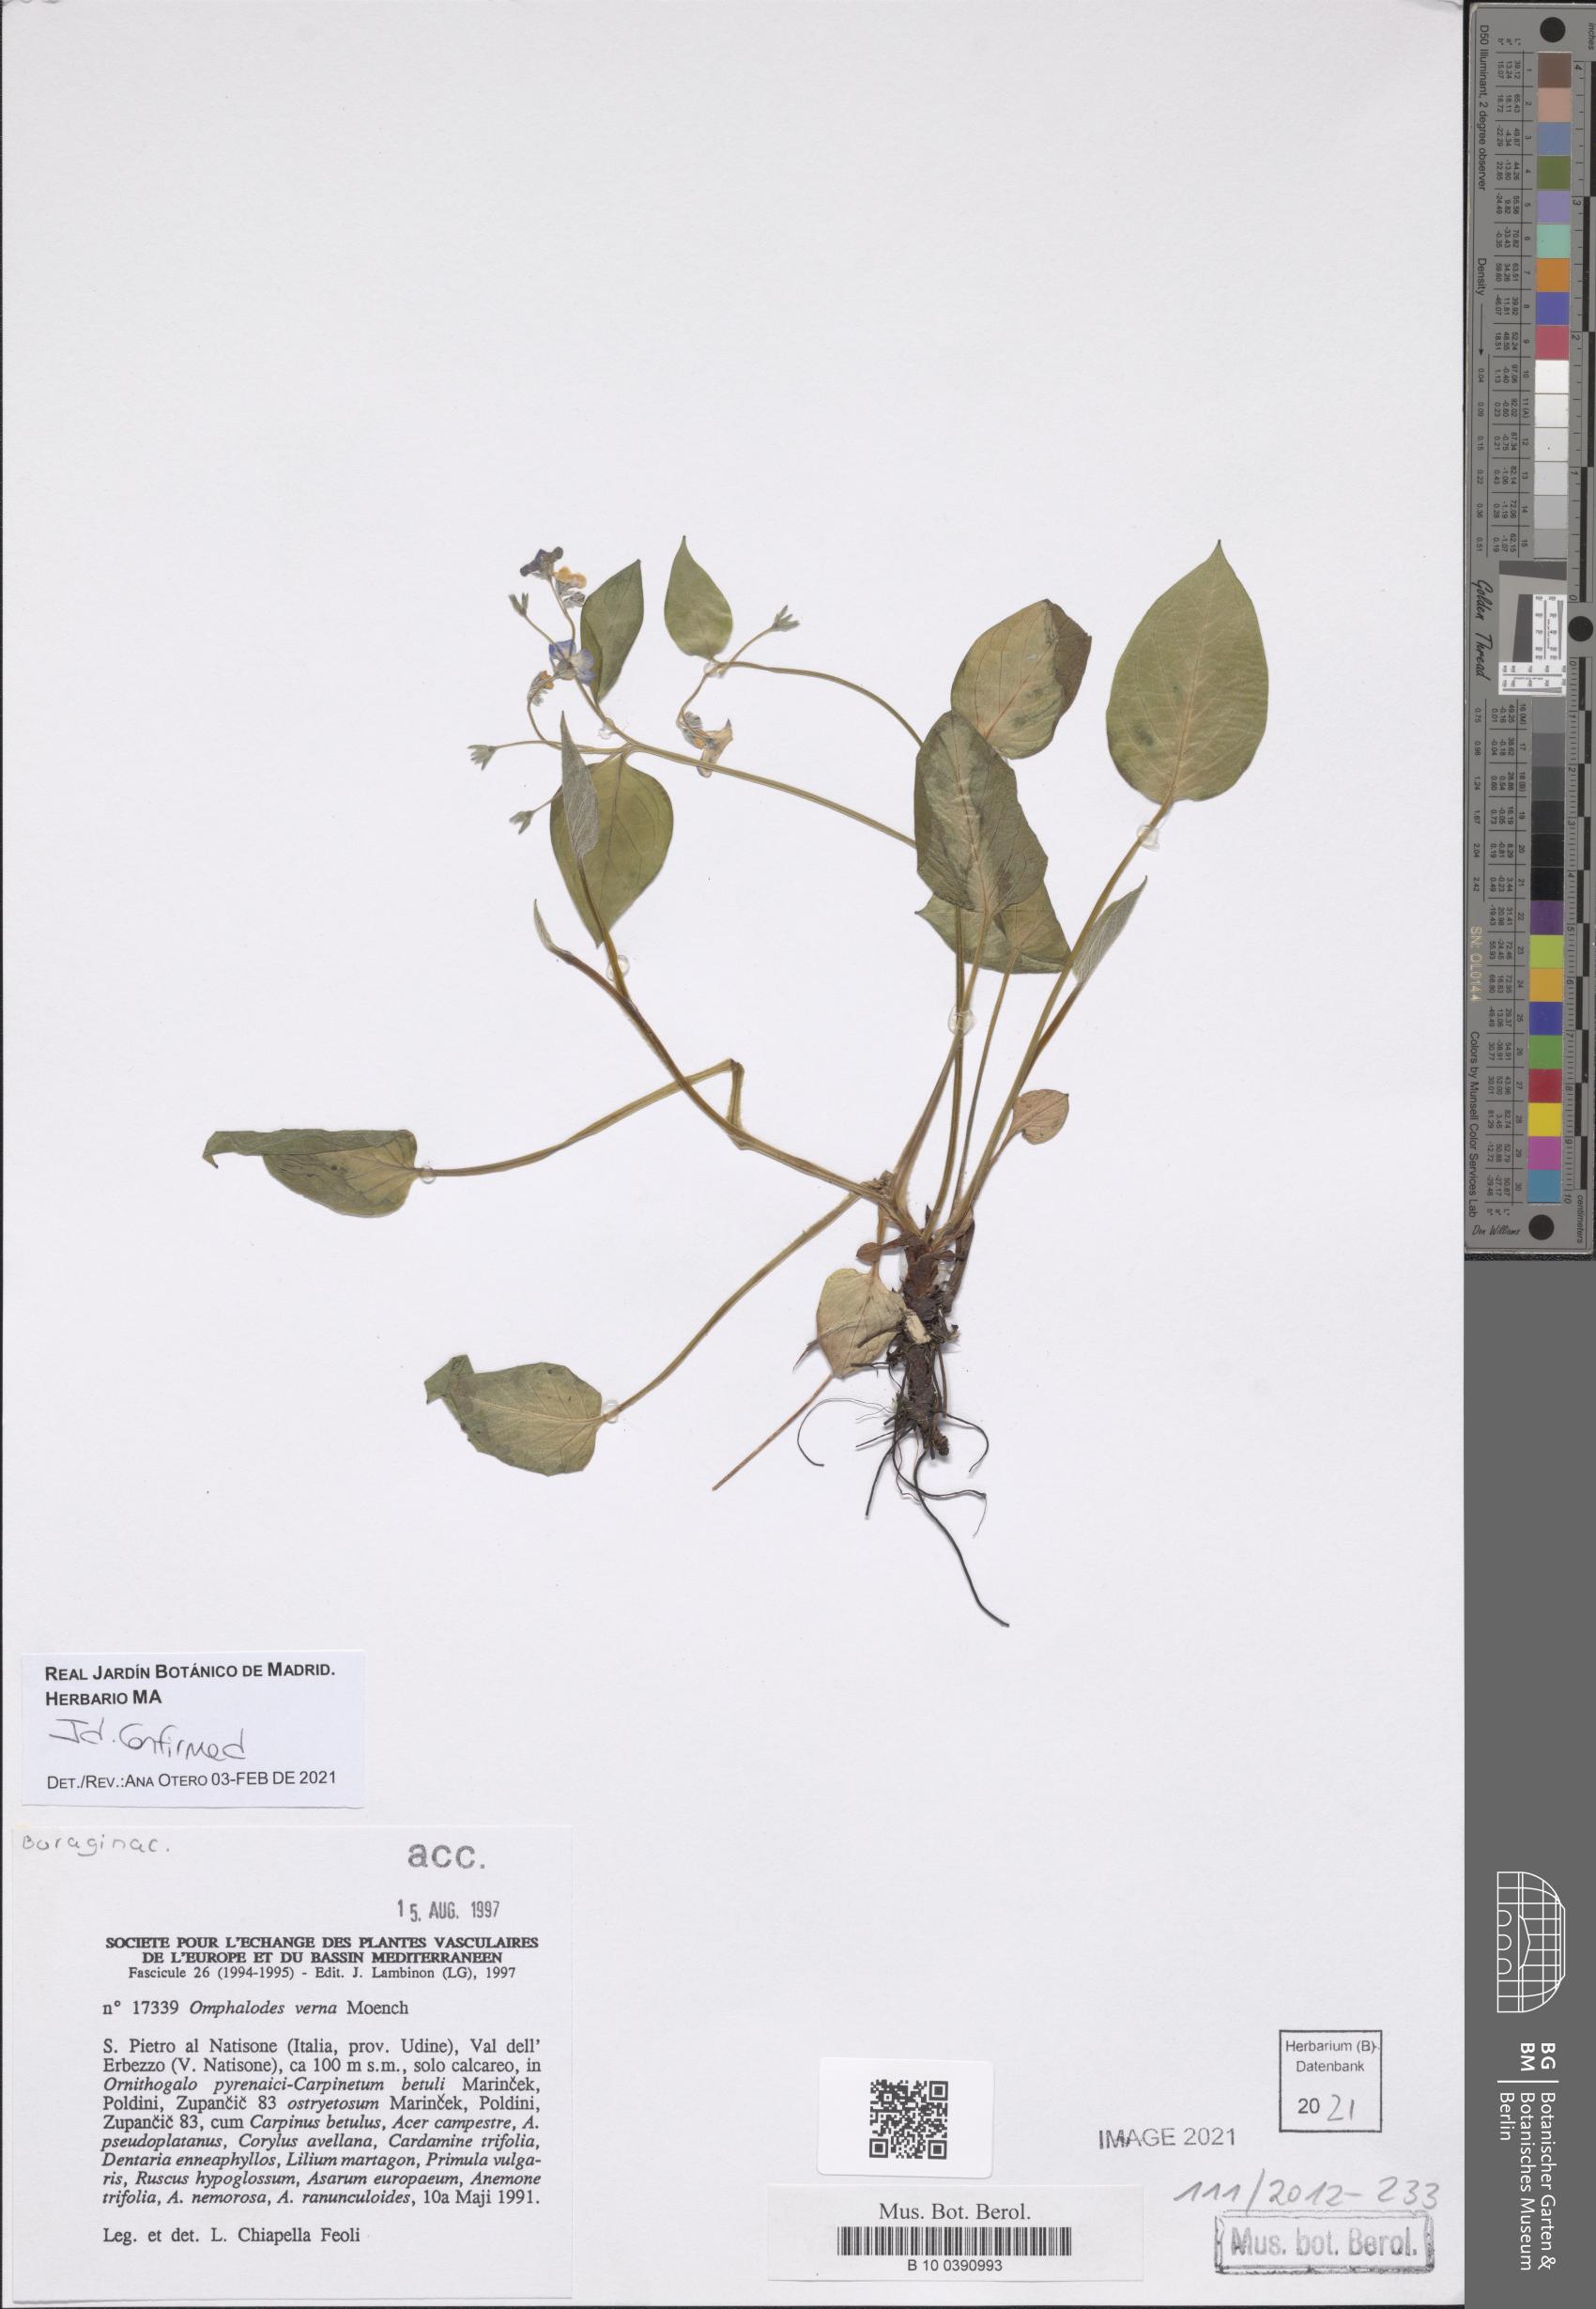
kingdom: Plantae
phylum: Tracheophyta
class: Magnoliopsida
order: Boraginales
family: Boraginaceae
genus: Omphalodes
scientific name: Omphalodes verna
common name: Blue-eyed-mary
